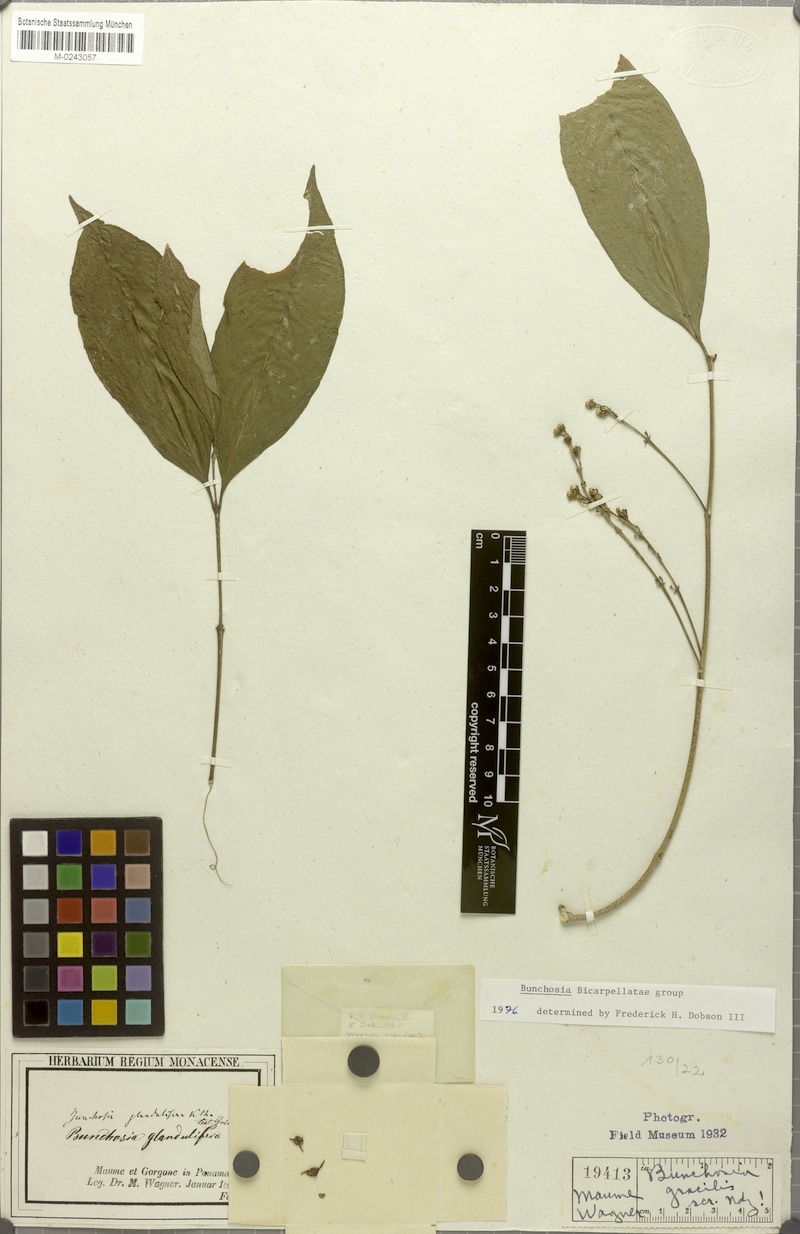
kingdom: Plantae
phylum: Tracheophyta
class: Magnoliopsida
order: Malpighiales
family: Malpighiaceae
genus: Bunchosia
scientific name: Bunchosia polystachya
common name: Woodland coffee
